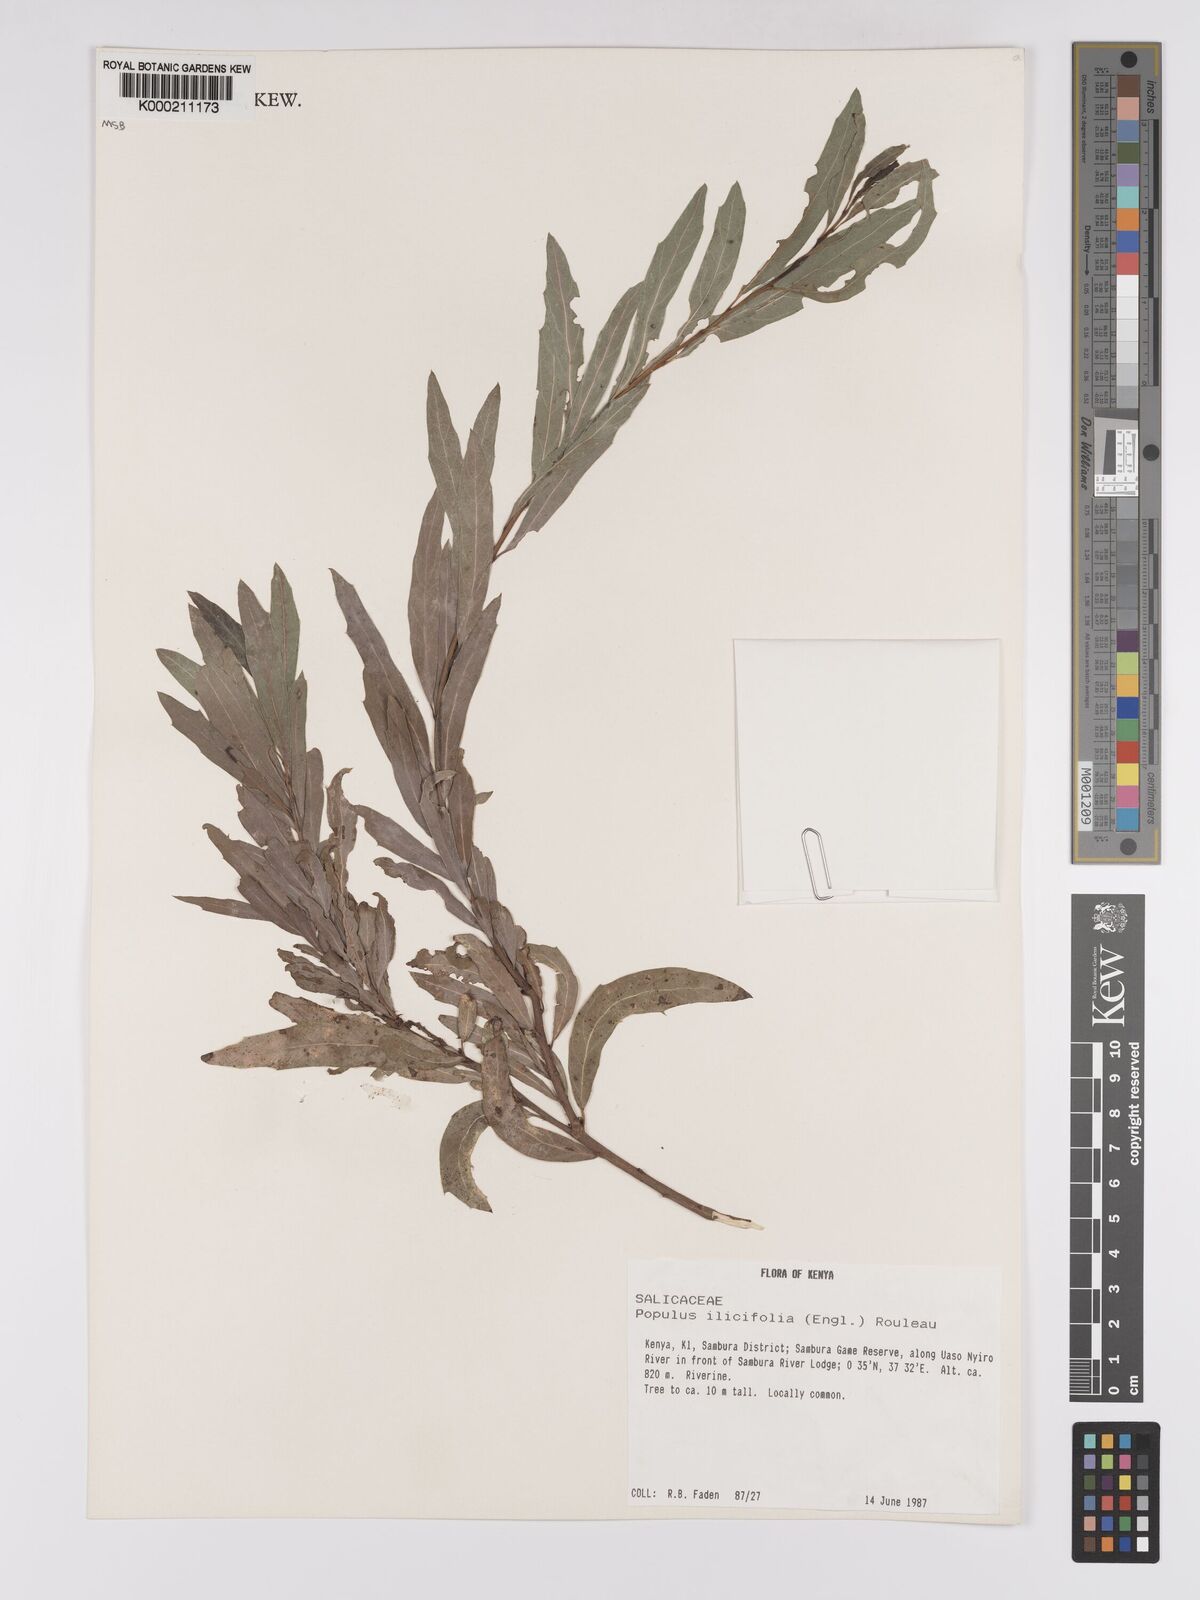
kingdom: Plantae
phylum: Tracheophyta
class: Magnoliopsida
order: Malpighiales
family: Salicaceae
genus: Populus
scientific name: Populus ilicifolia
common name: Tana river poplar
